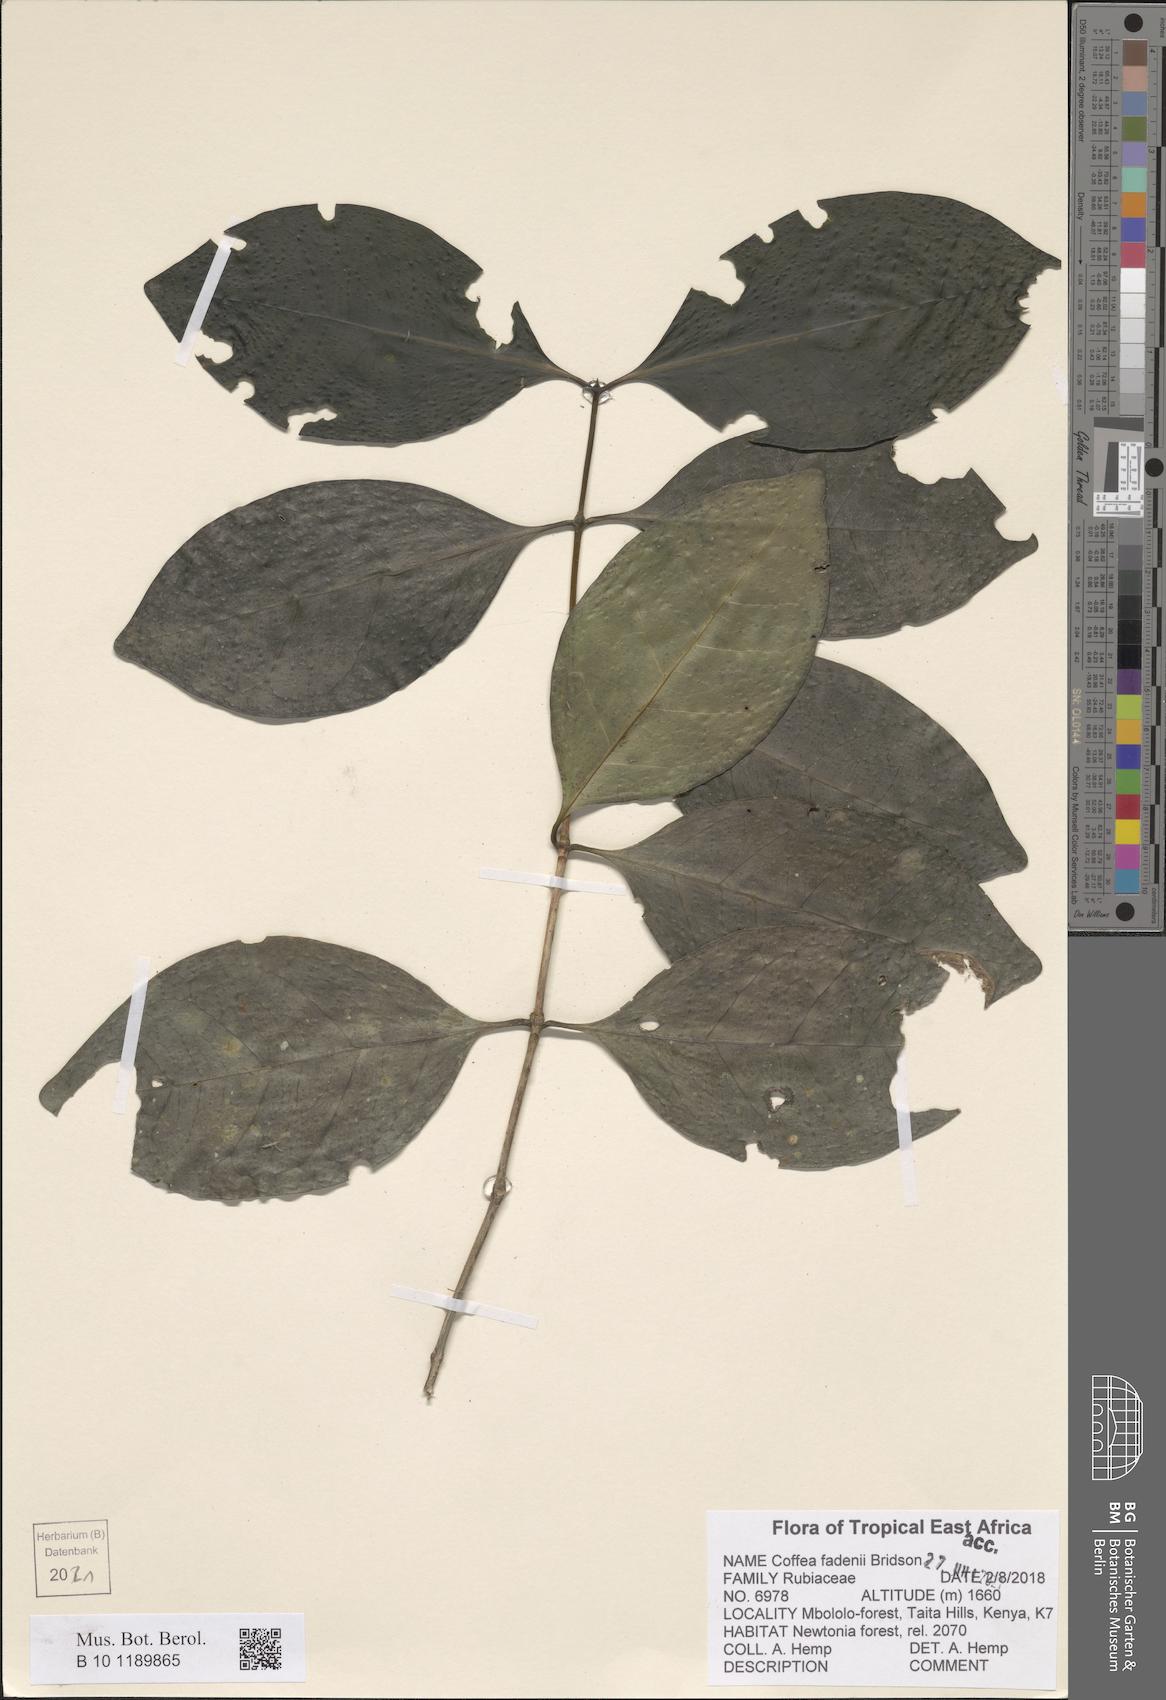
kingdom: Plantae
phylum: Tracheophyta
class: Magnoliopsida
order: Gentianales
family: Rubiaceae
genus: Coffea
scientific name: Coffea fadenii
